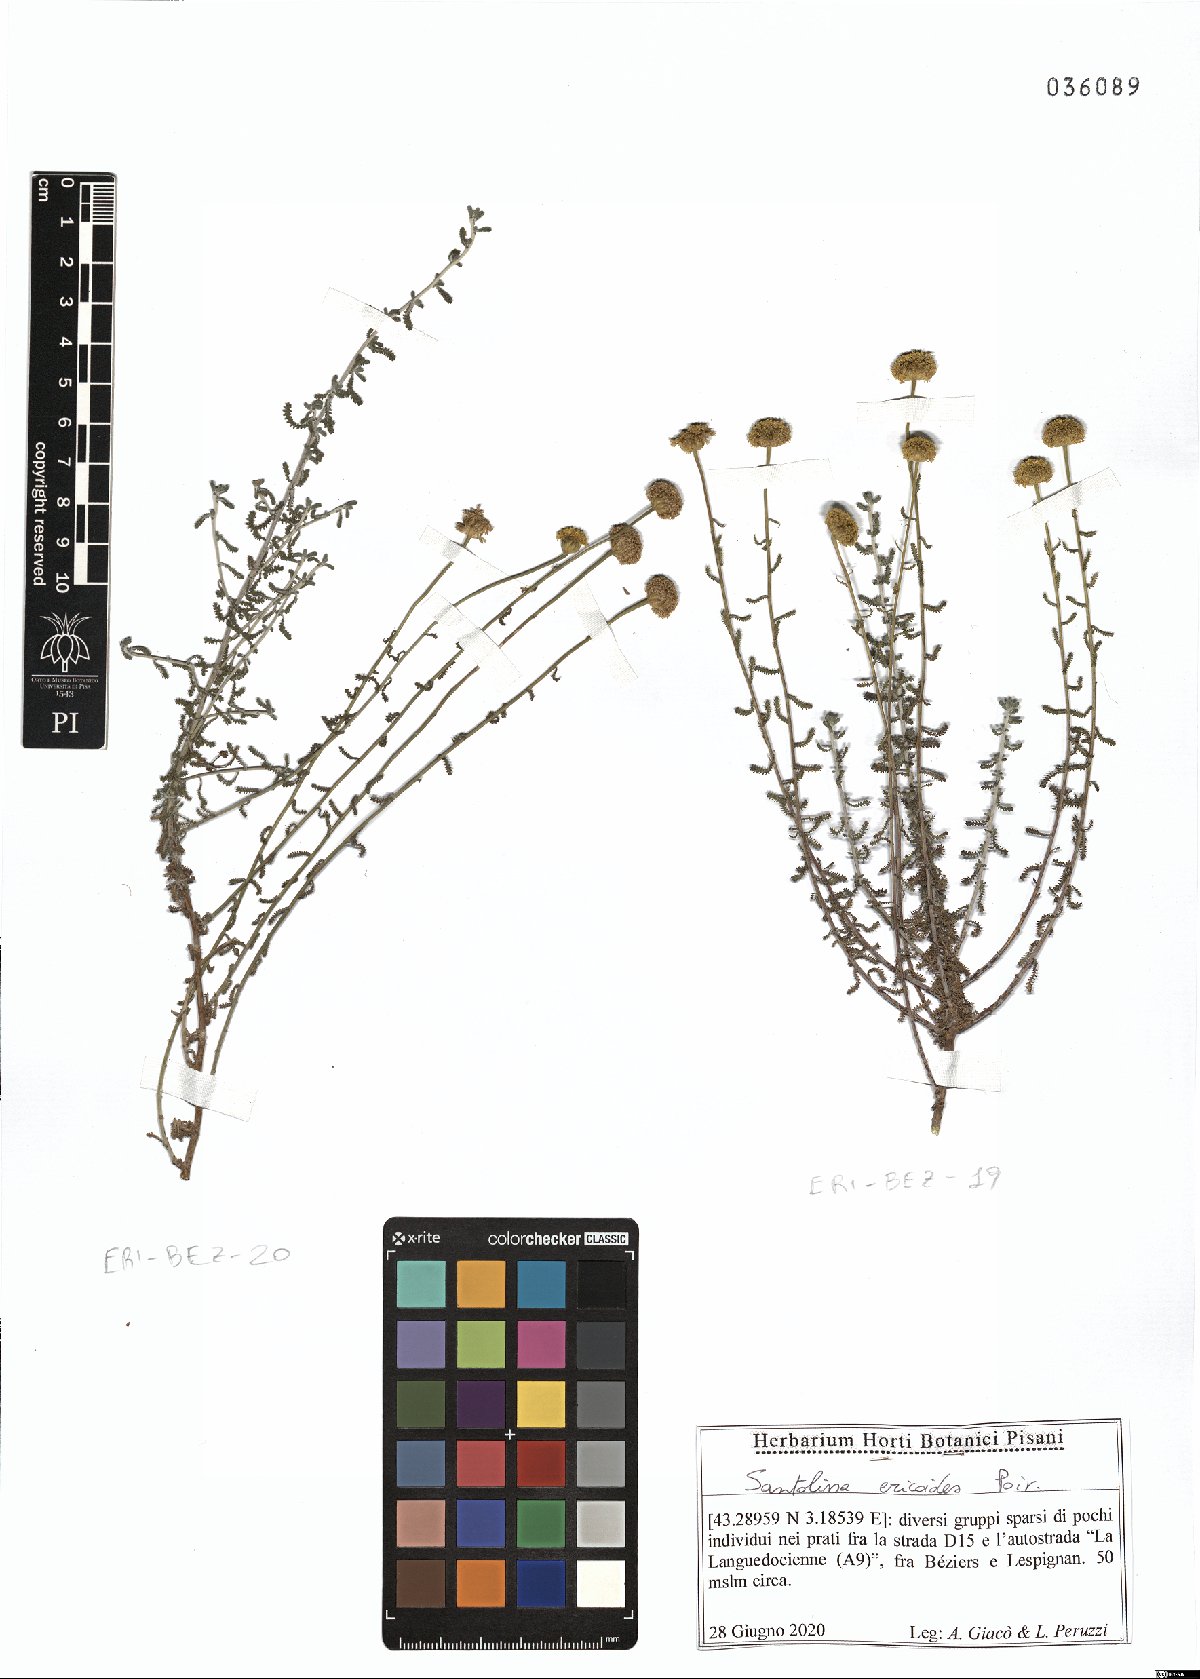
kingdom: Plantae
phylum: Tracheophyta
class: Magnoliopsida
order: Asterales
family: Asteraceae
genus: Santolina
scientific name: Santolina ericoides
